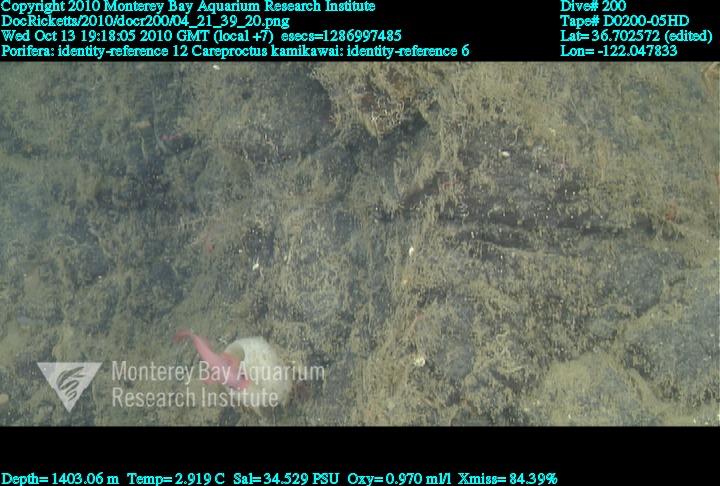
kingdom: Animalia
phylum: Porifera
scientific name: Porifera
